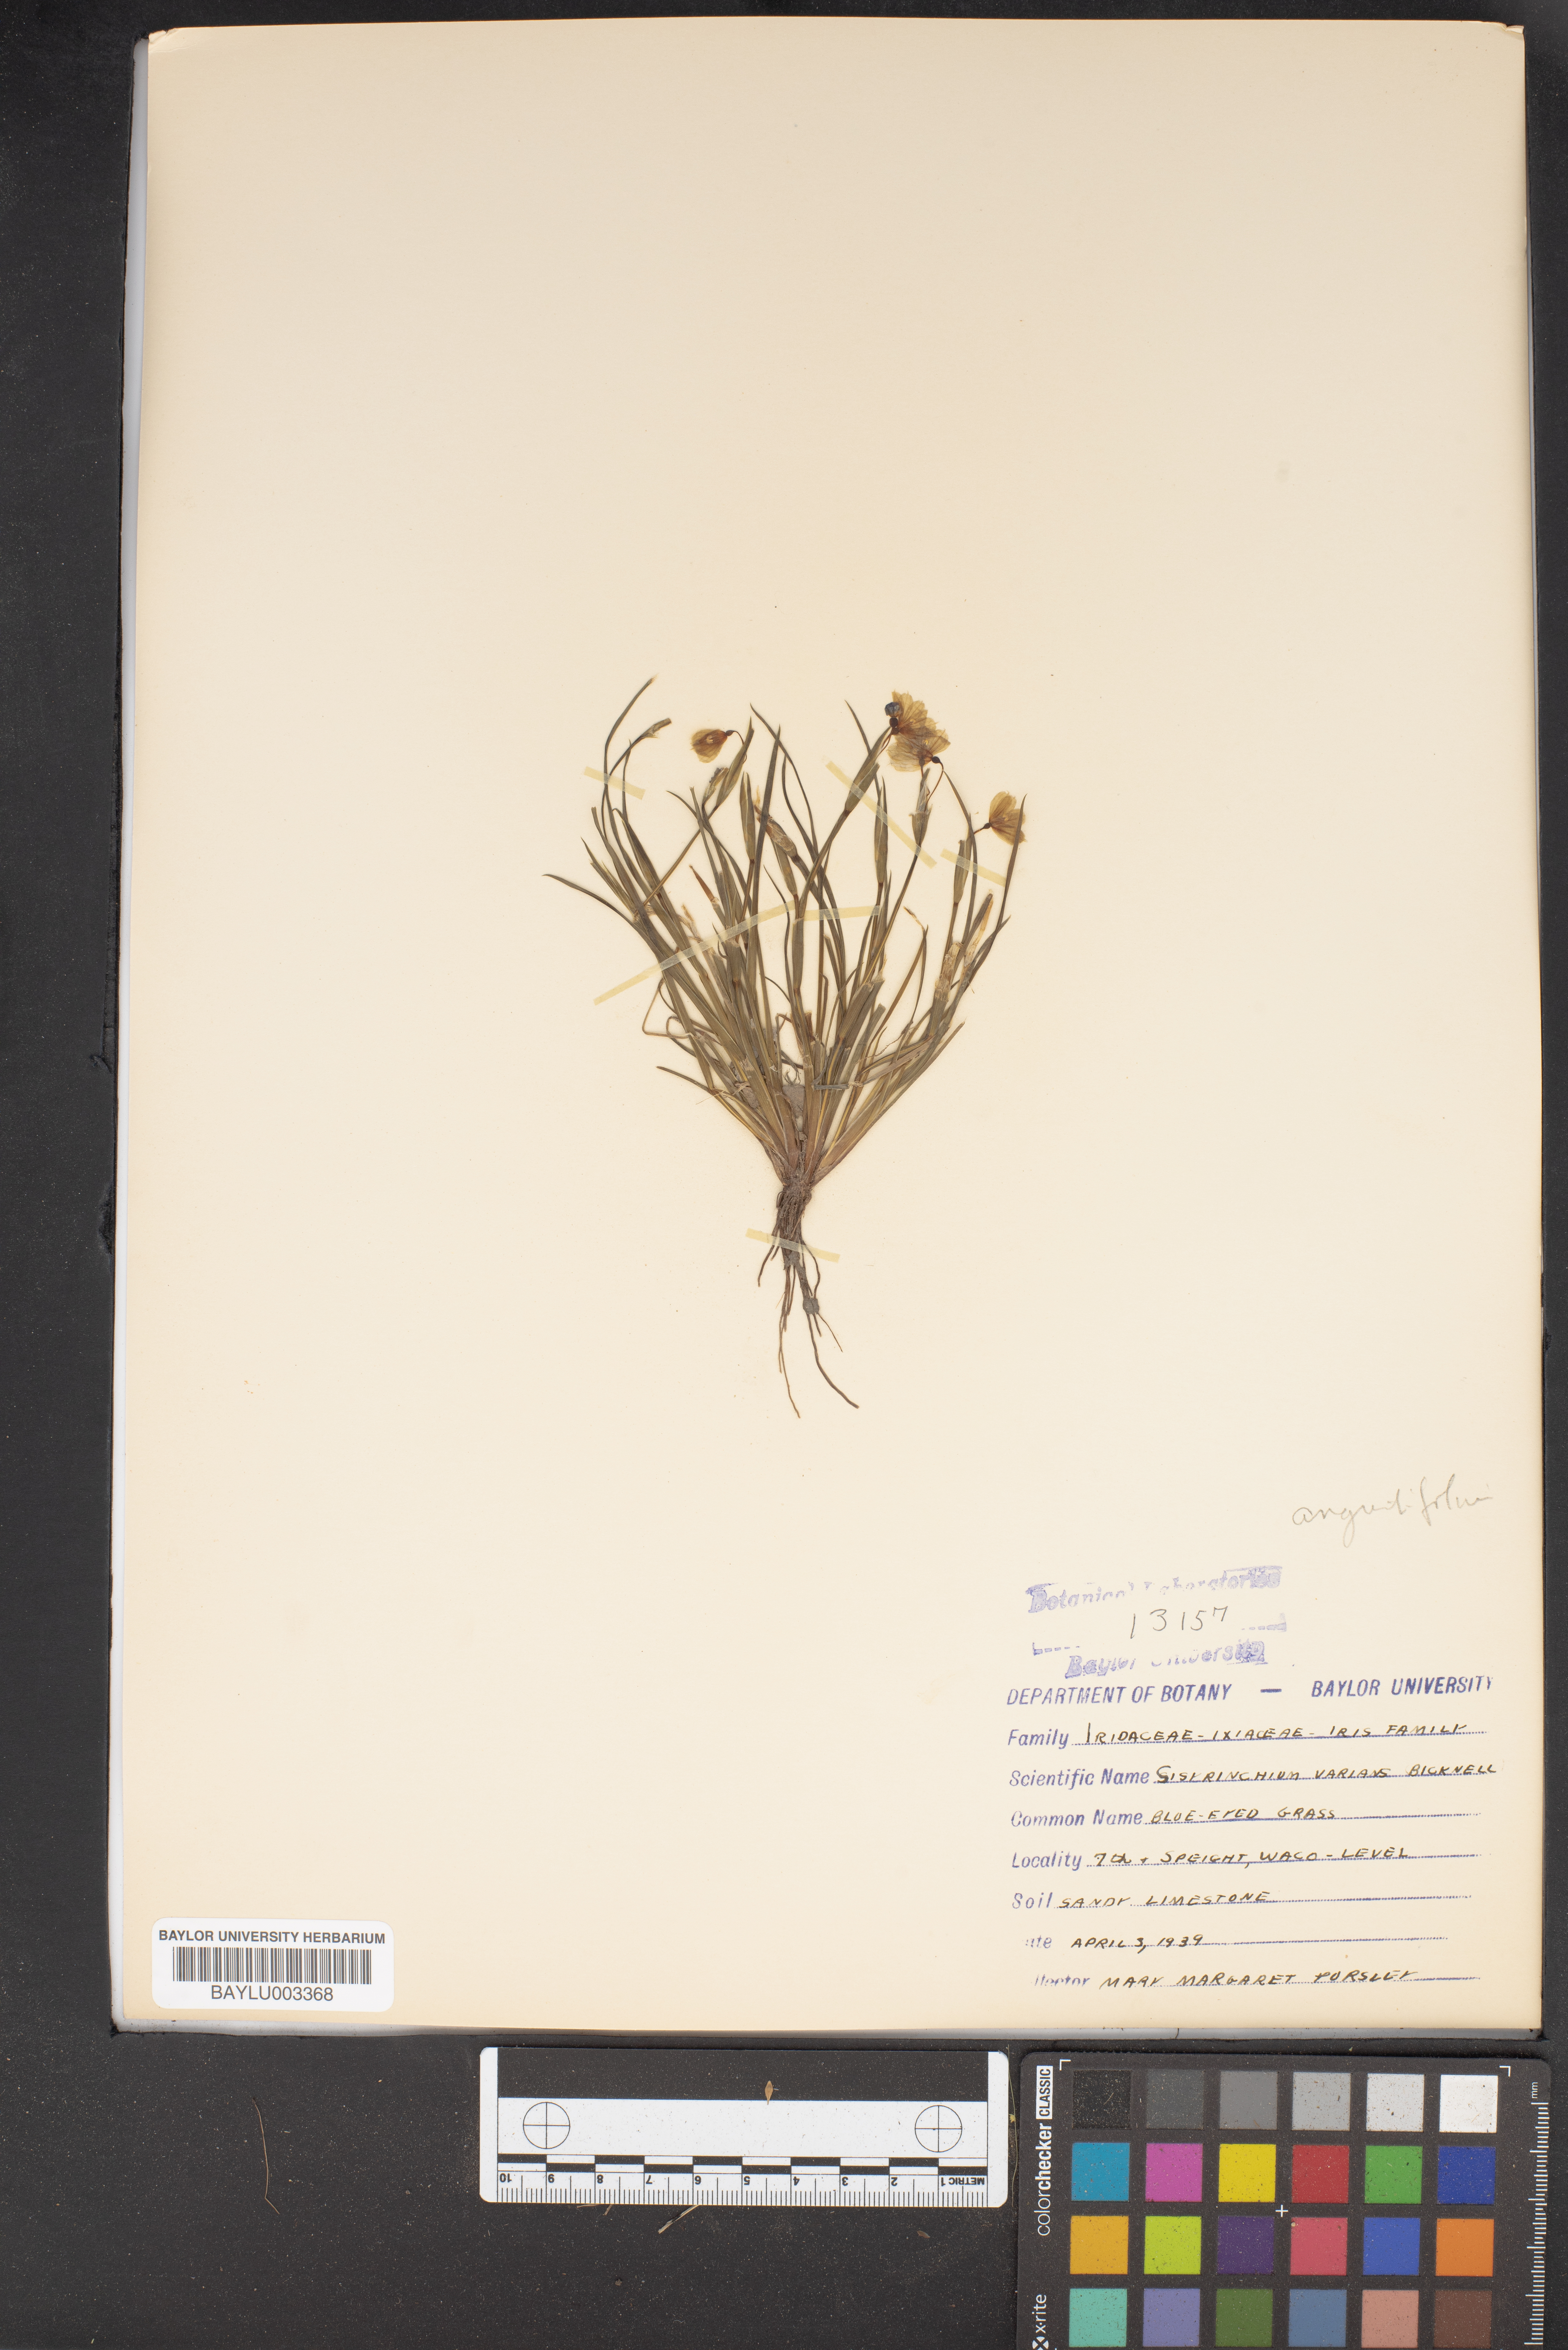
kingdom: Plantae
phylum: Tracheophyta
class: Liliopsida
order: Asparagales
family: Iridaceae
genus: Sisyrinchium
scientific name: Sisyrinchium pruinosum
